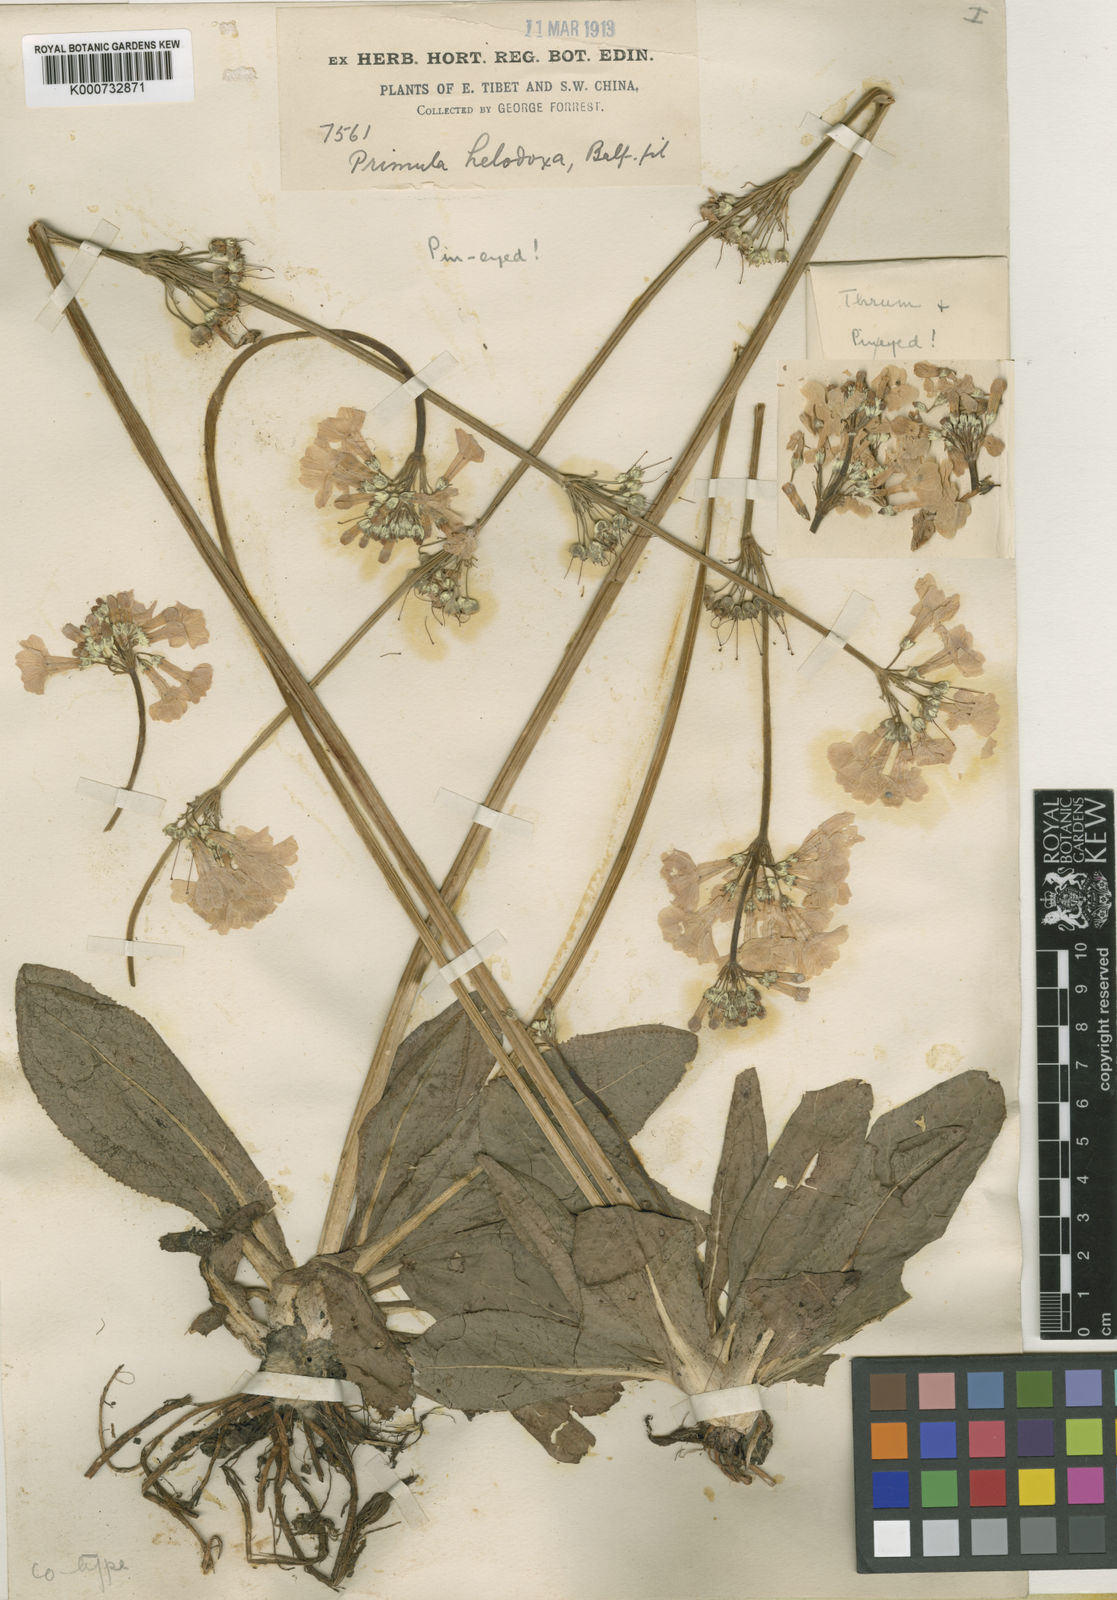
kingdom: Plantae
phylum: Tracheophyta
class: Magnoliopsida
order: Ericales
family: Primulaceae
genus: Primula
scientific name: Primula helodoxa
